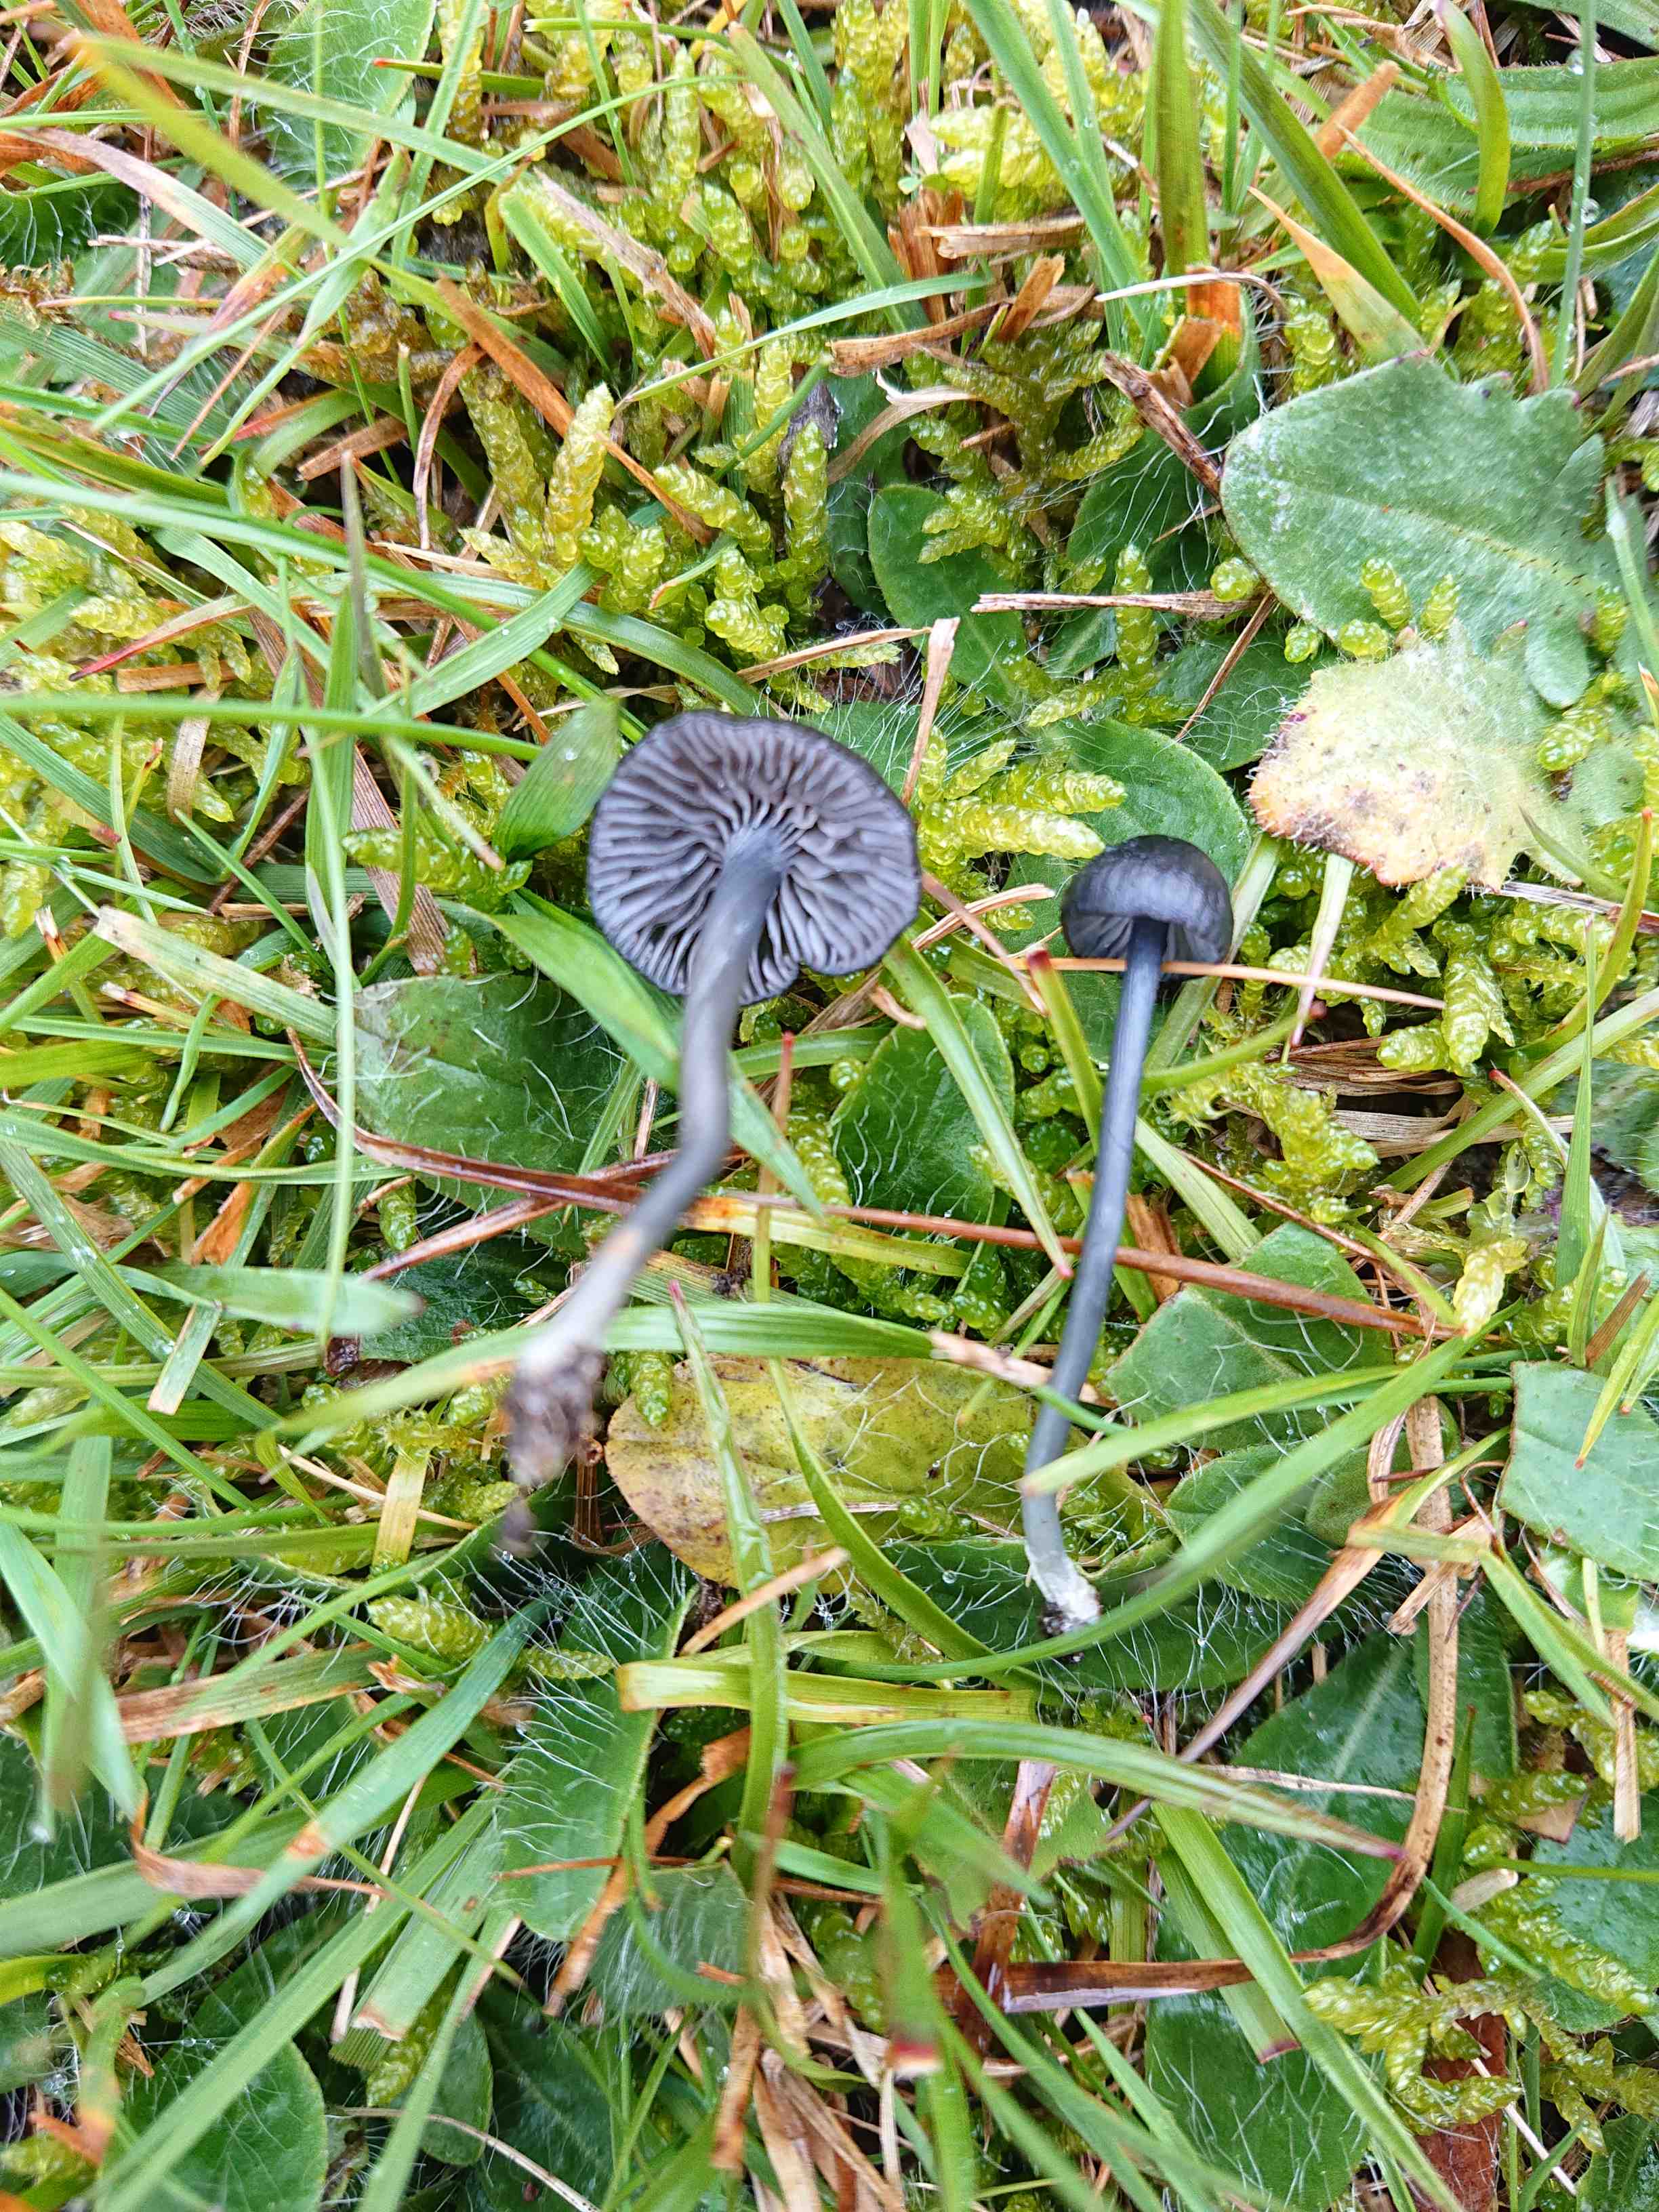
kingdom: Fungi
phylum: Basidiomycota
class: Agaricomycetes
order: Agaricales
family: Entolomataceae
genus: Entoloma
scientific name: Entoloma chalybeum
